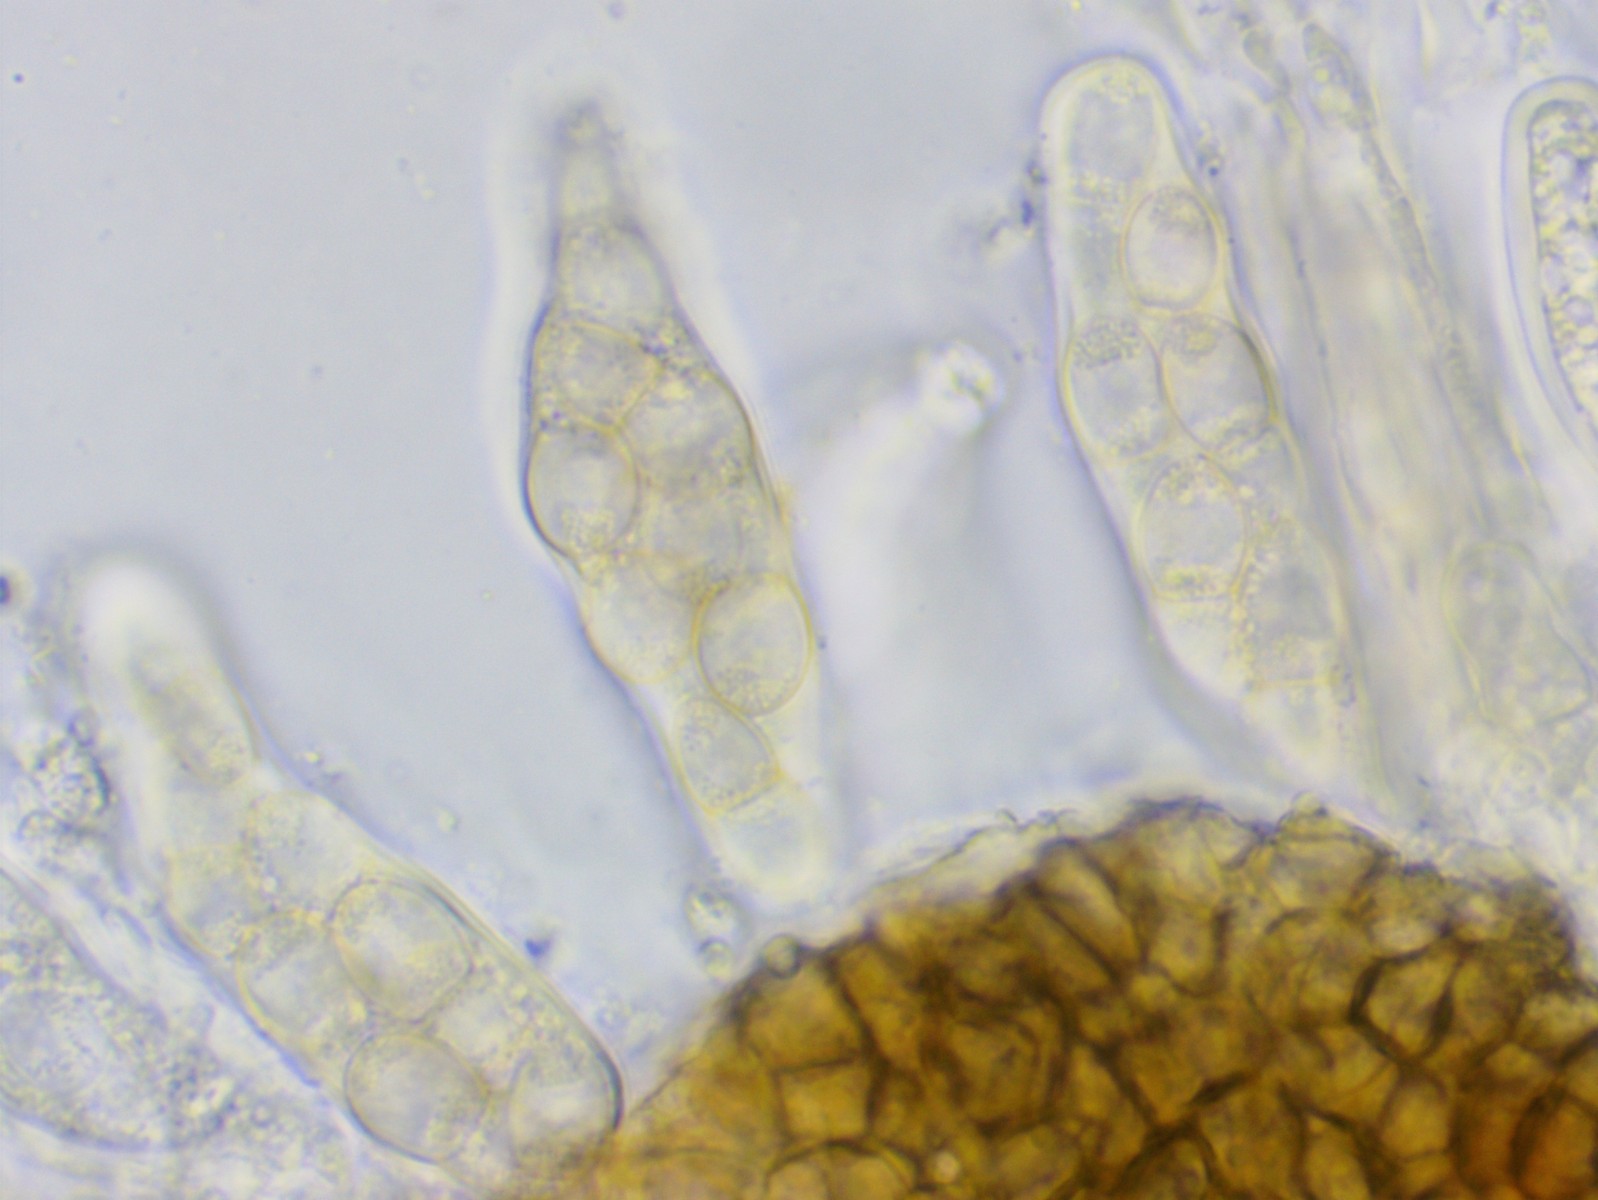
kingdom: Fungi
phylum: Ascomycota
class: Dothideomycetes
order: Venturiales
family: Venturiaceae
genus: Venturia
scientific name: Venturia rumicis
